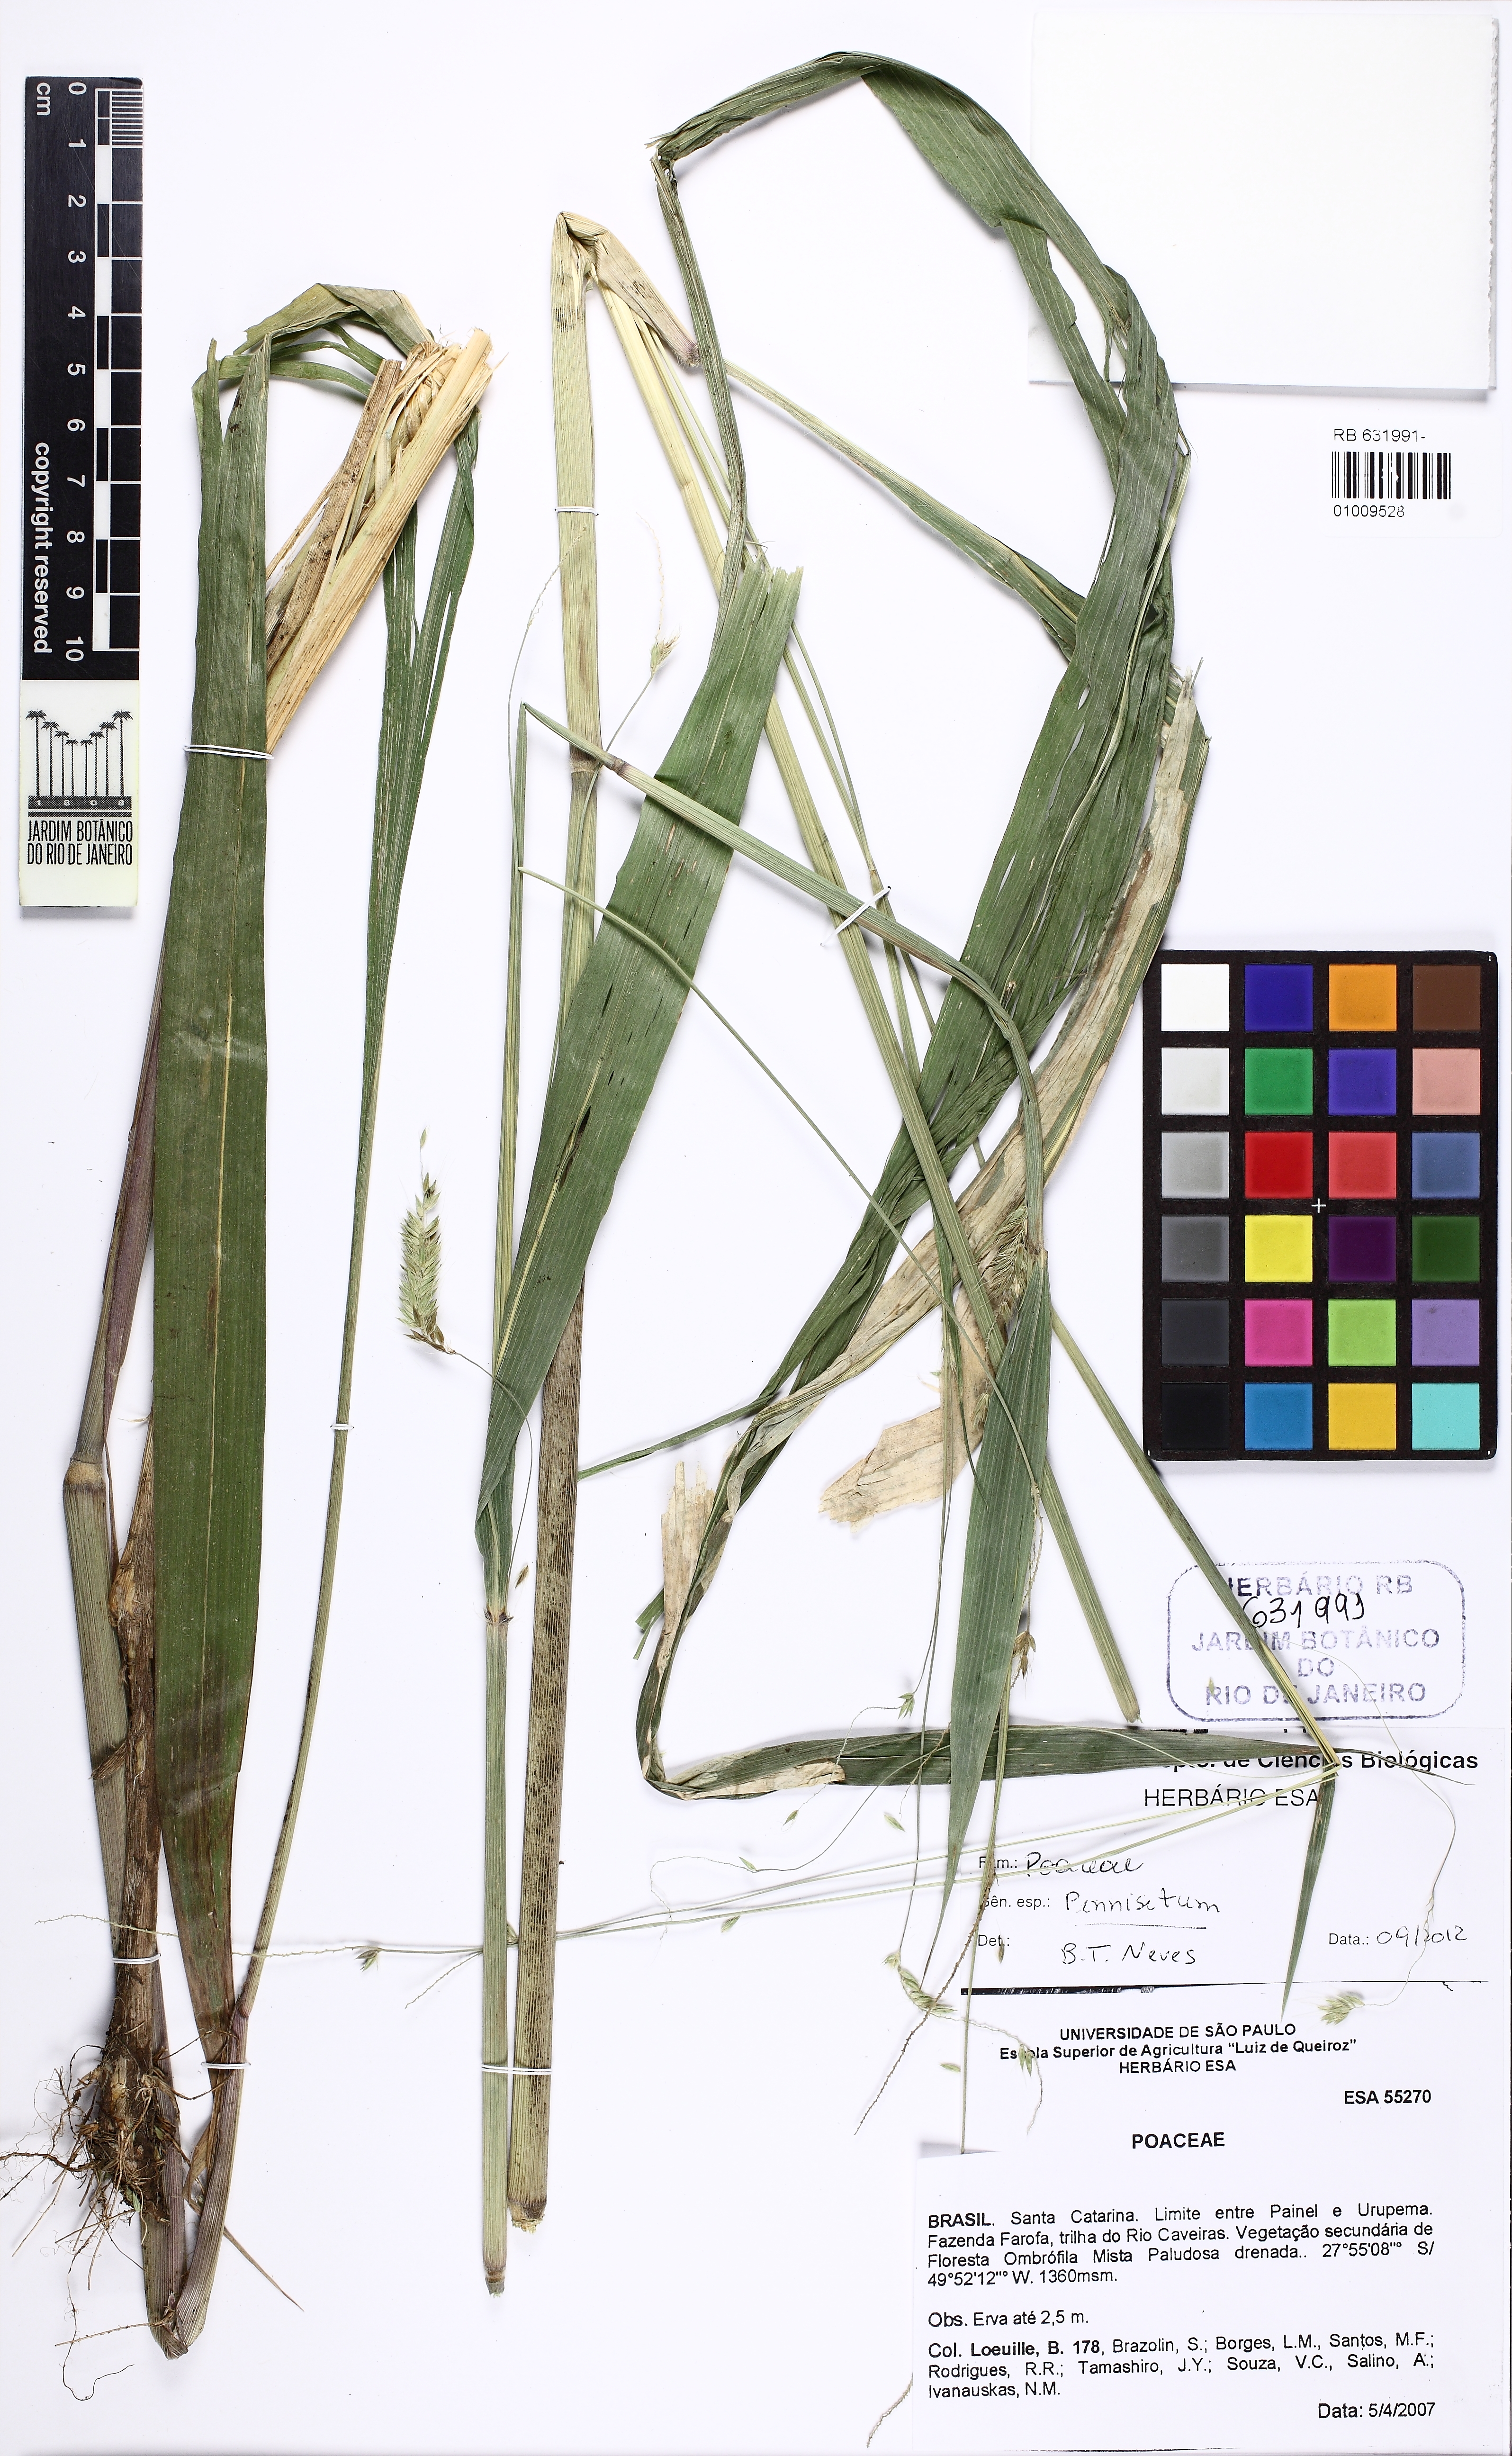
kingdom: Plantae
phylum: Tracheophyta
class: Liliopsida
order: Poales
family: Poaceae
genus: Cenchrus
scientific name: Cenchrus Pennisetum spec
